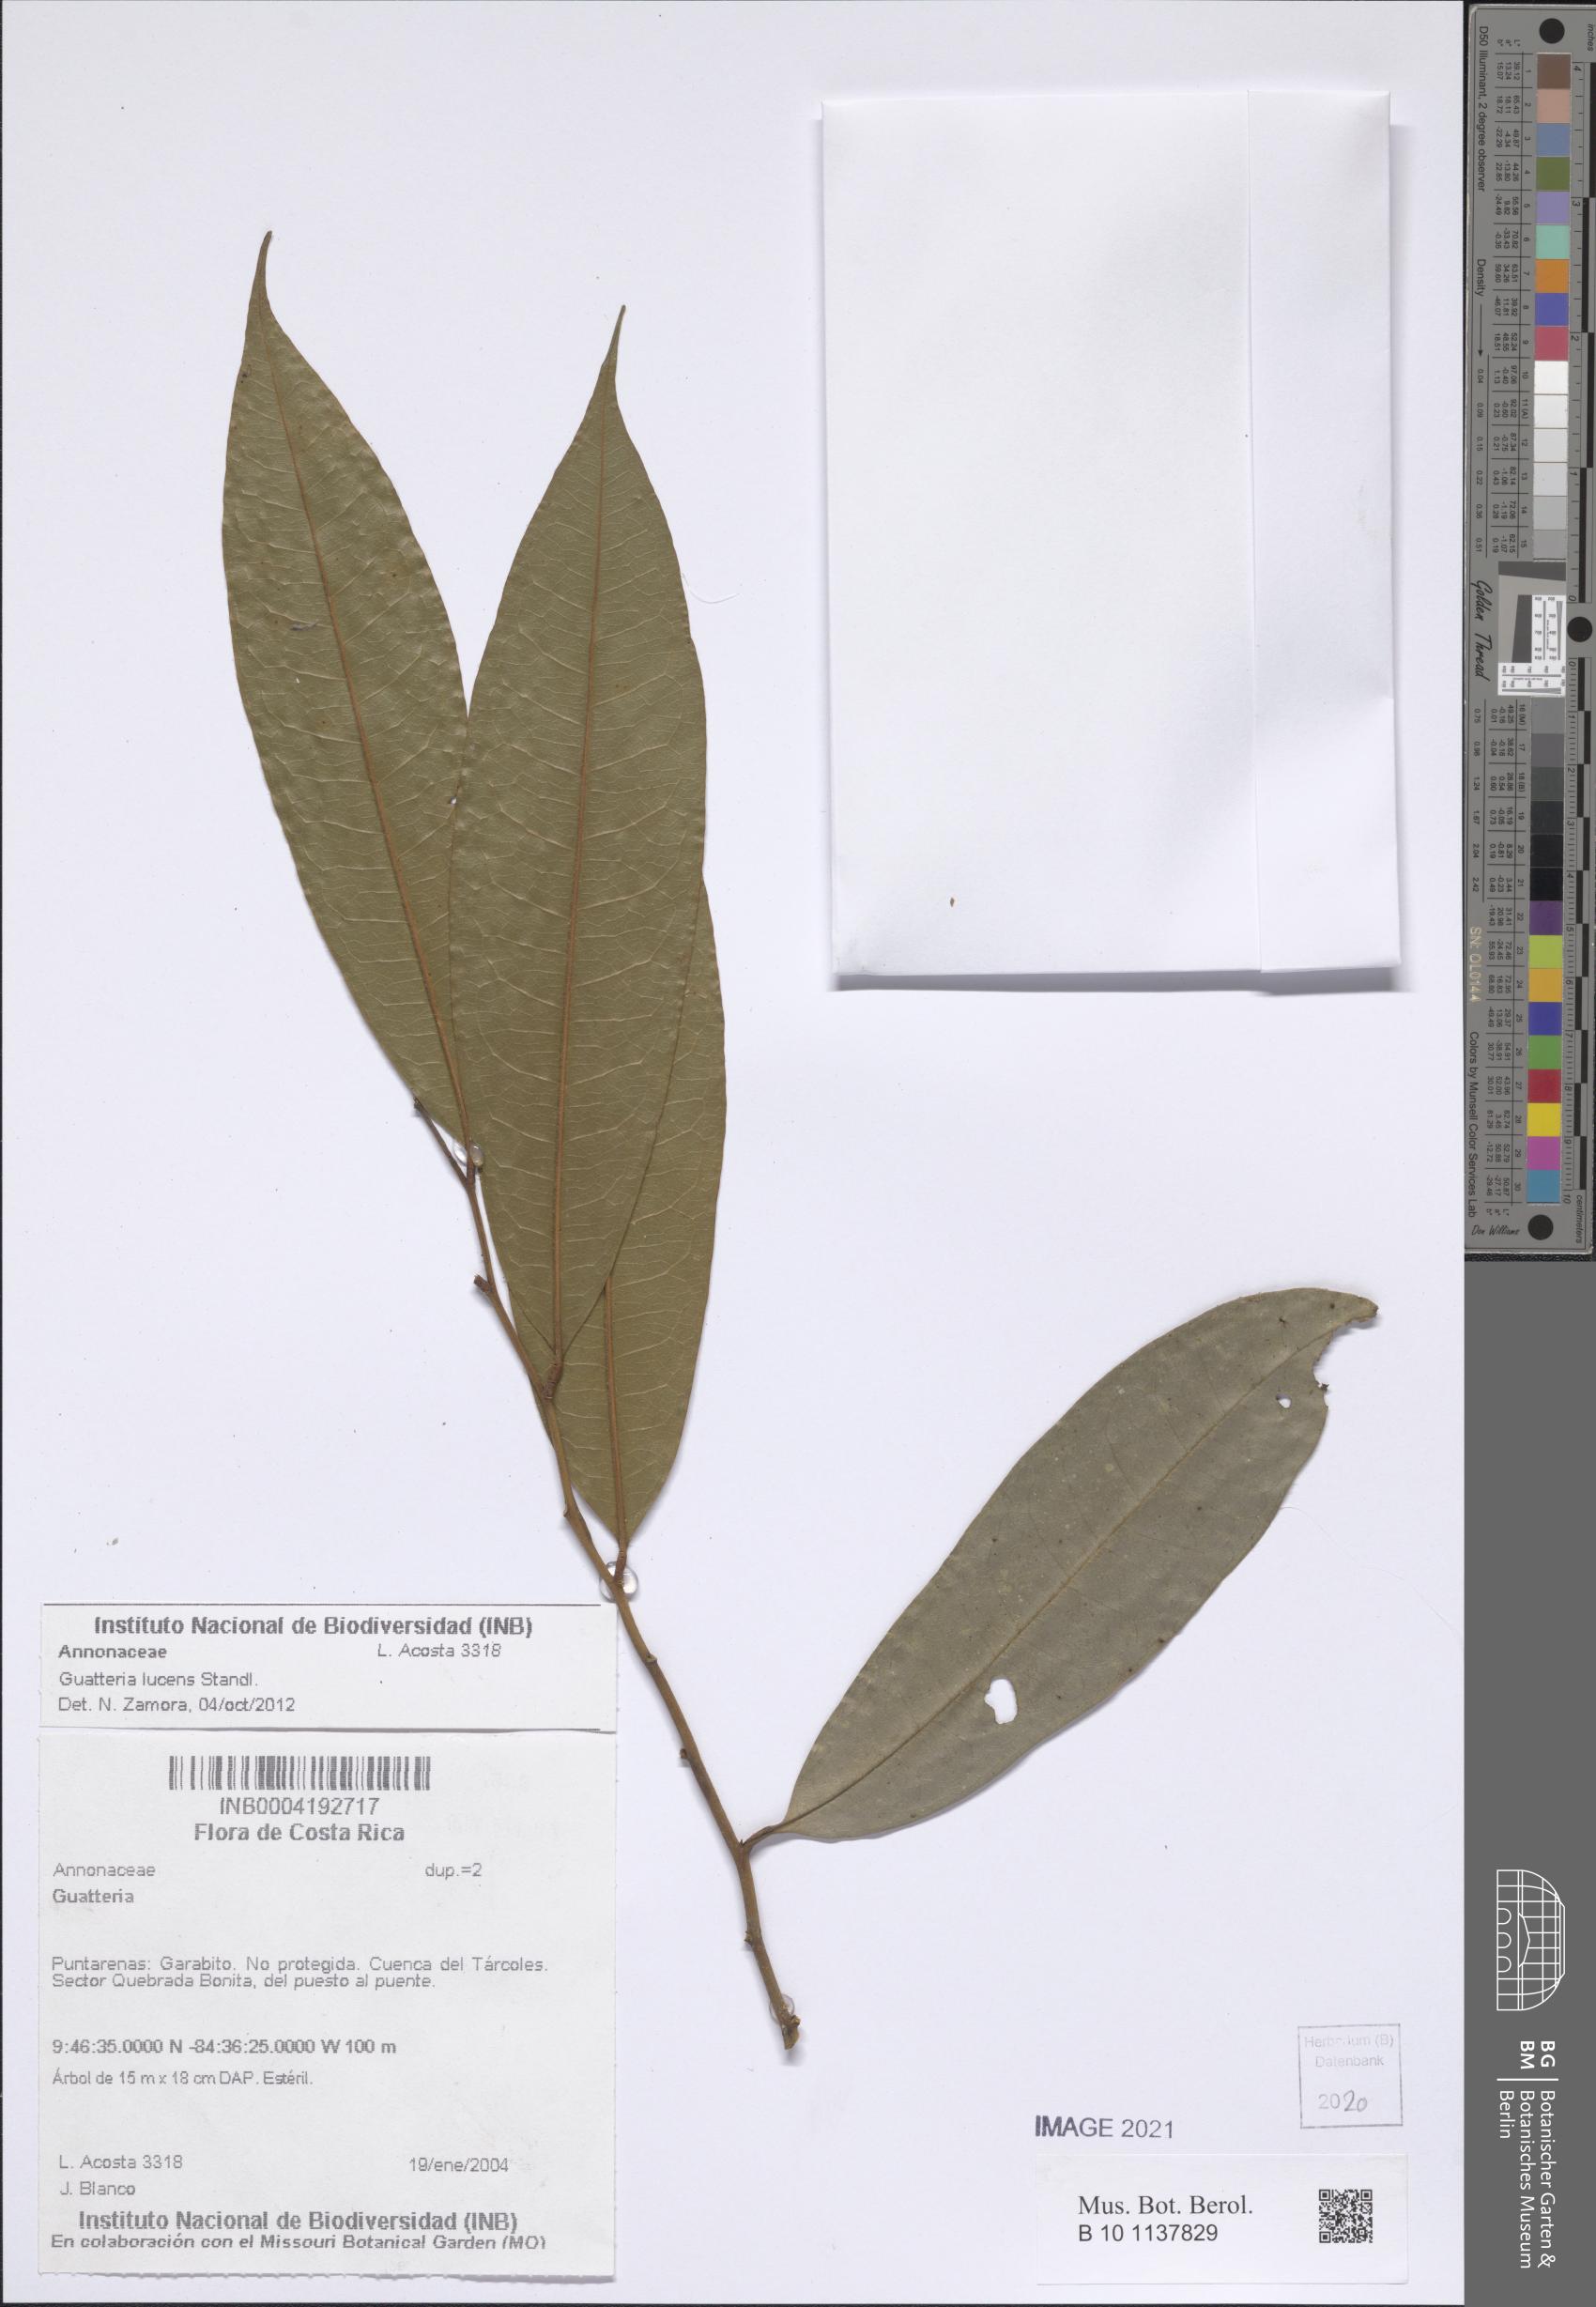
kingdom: Plantae
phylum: Tracheophyta
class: Magnoliopsida
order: Magnoliales
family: Annonaceae
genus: Guatteria
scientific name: Guatteria lucens
